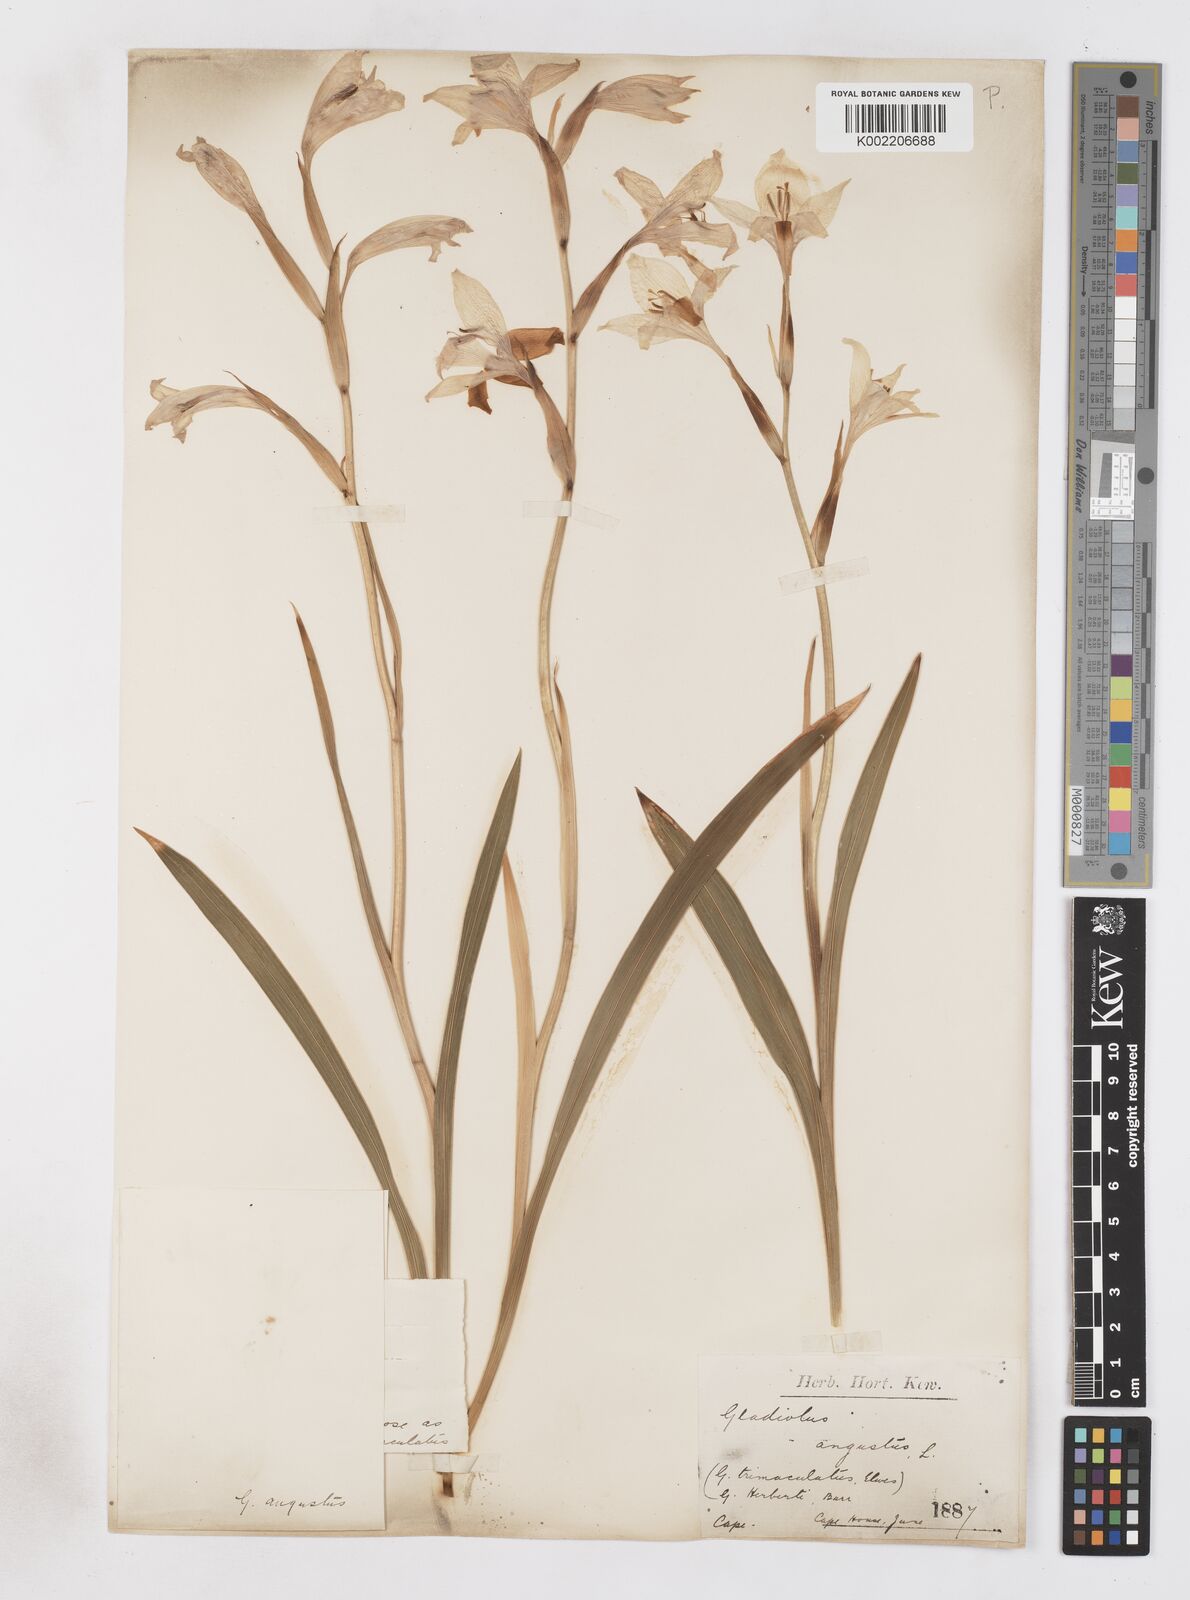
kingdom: Plantae
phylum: Tracheophyta
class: Liliopsida
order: Asparagales
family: Iridaceae
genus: Gladiolus
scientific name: Gladiolus angustus
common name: Painted-lady
